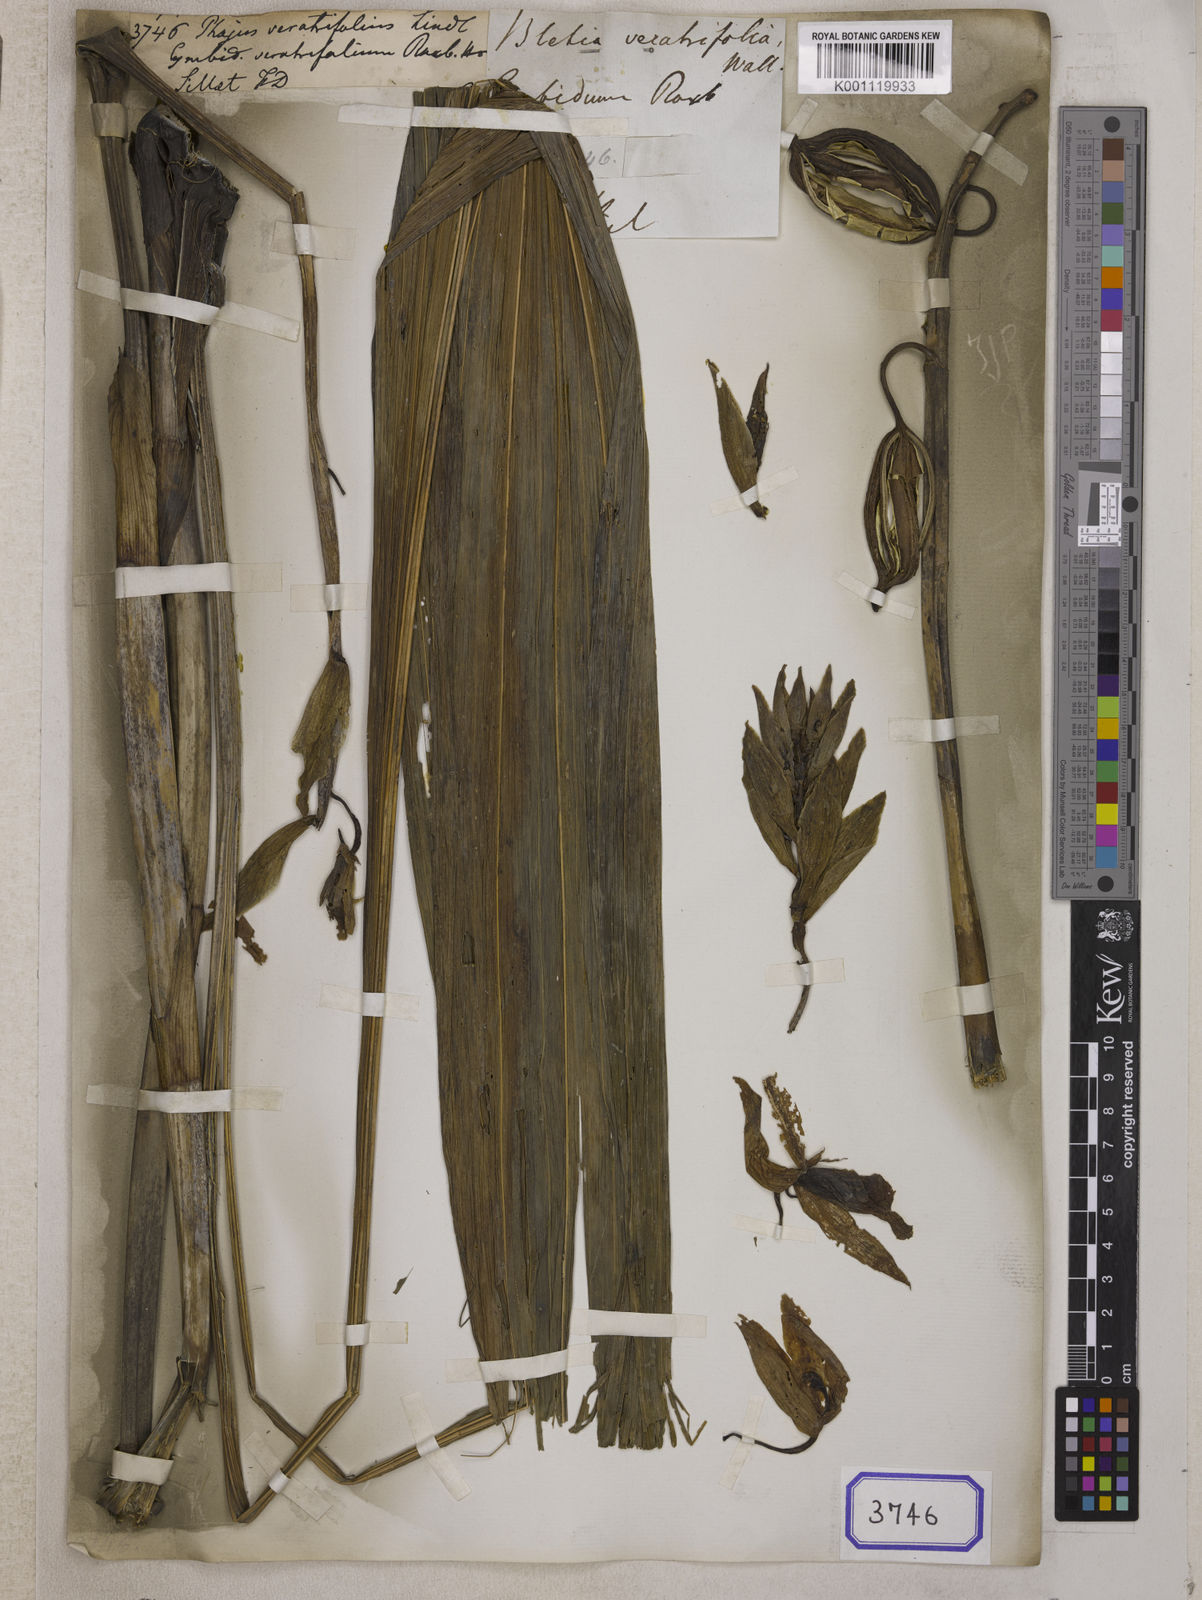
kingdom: Plantae
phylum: Tracheophyta
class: Liliopsida
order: Asparagales
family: Orchidaceae
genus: Calanthe
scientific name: Calanthe tankervilleae
